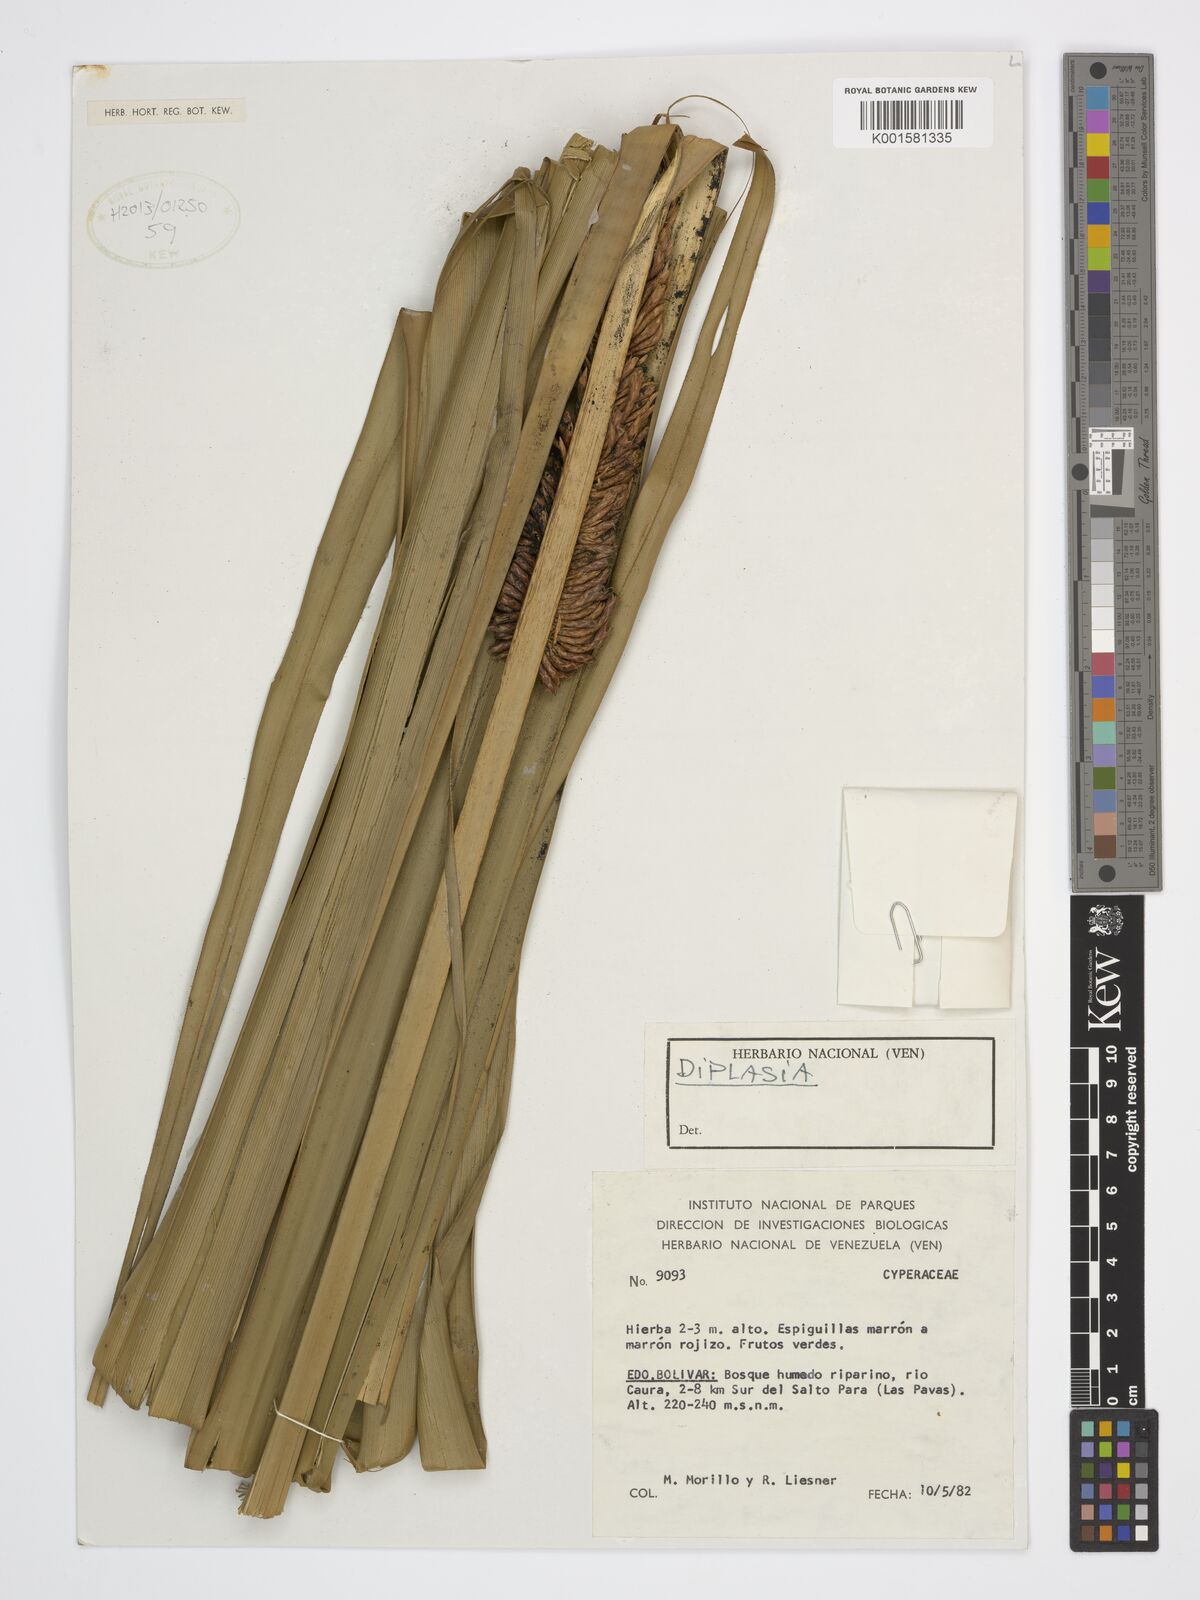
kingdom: Plantae
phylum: Tracheophyta
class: Liliopsida
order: Poales
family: Cyperaceae
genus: Diplasia
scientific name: Diplasia
